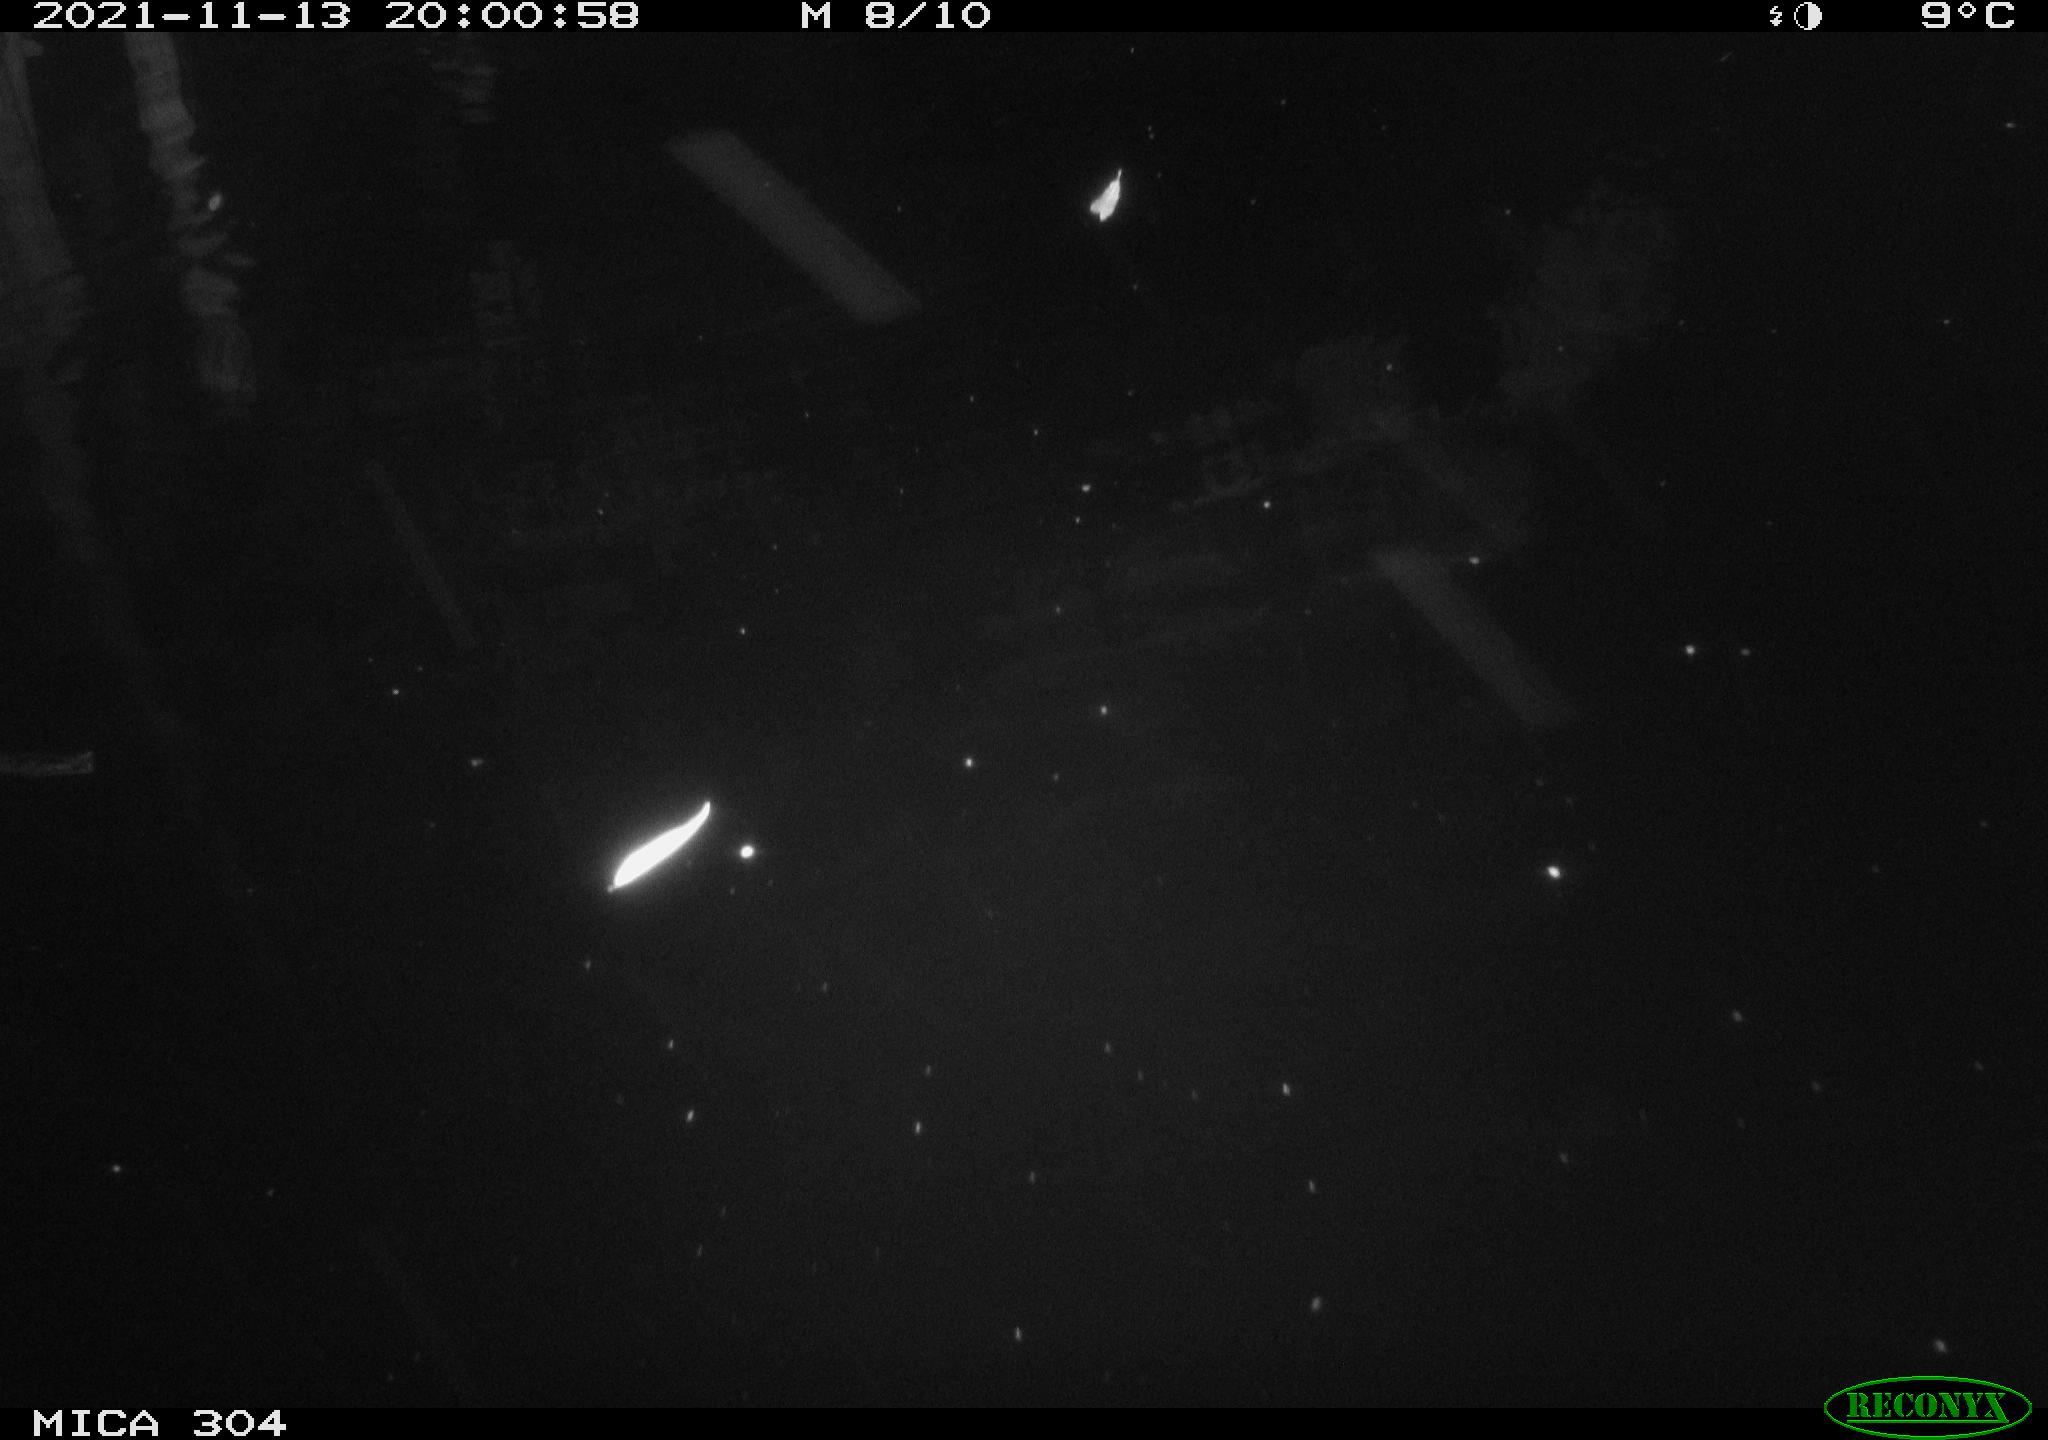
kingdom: Animalia
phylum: Chordata
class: Mammalia
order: Rodentia
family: Muridae
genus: Rattus
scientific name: Rattus norvegicus
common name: Brown rat
